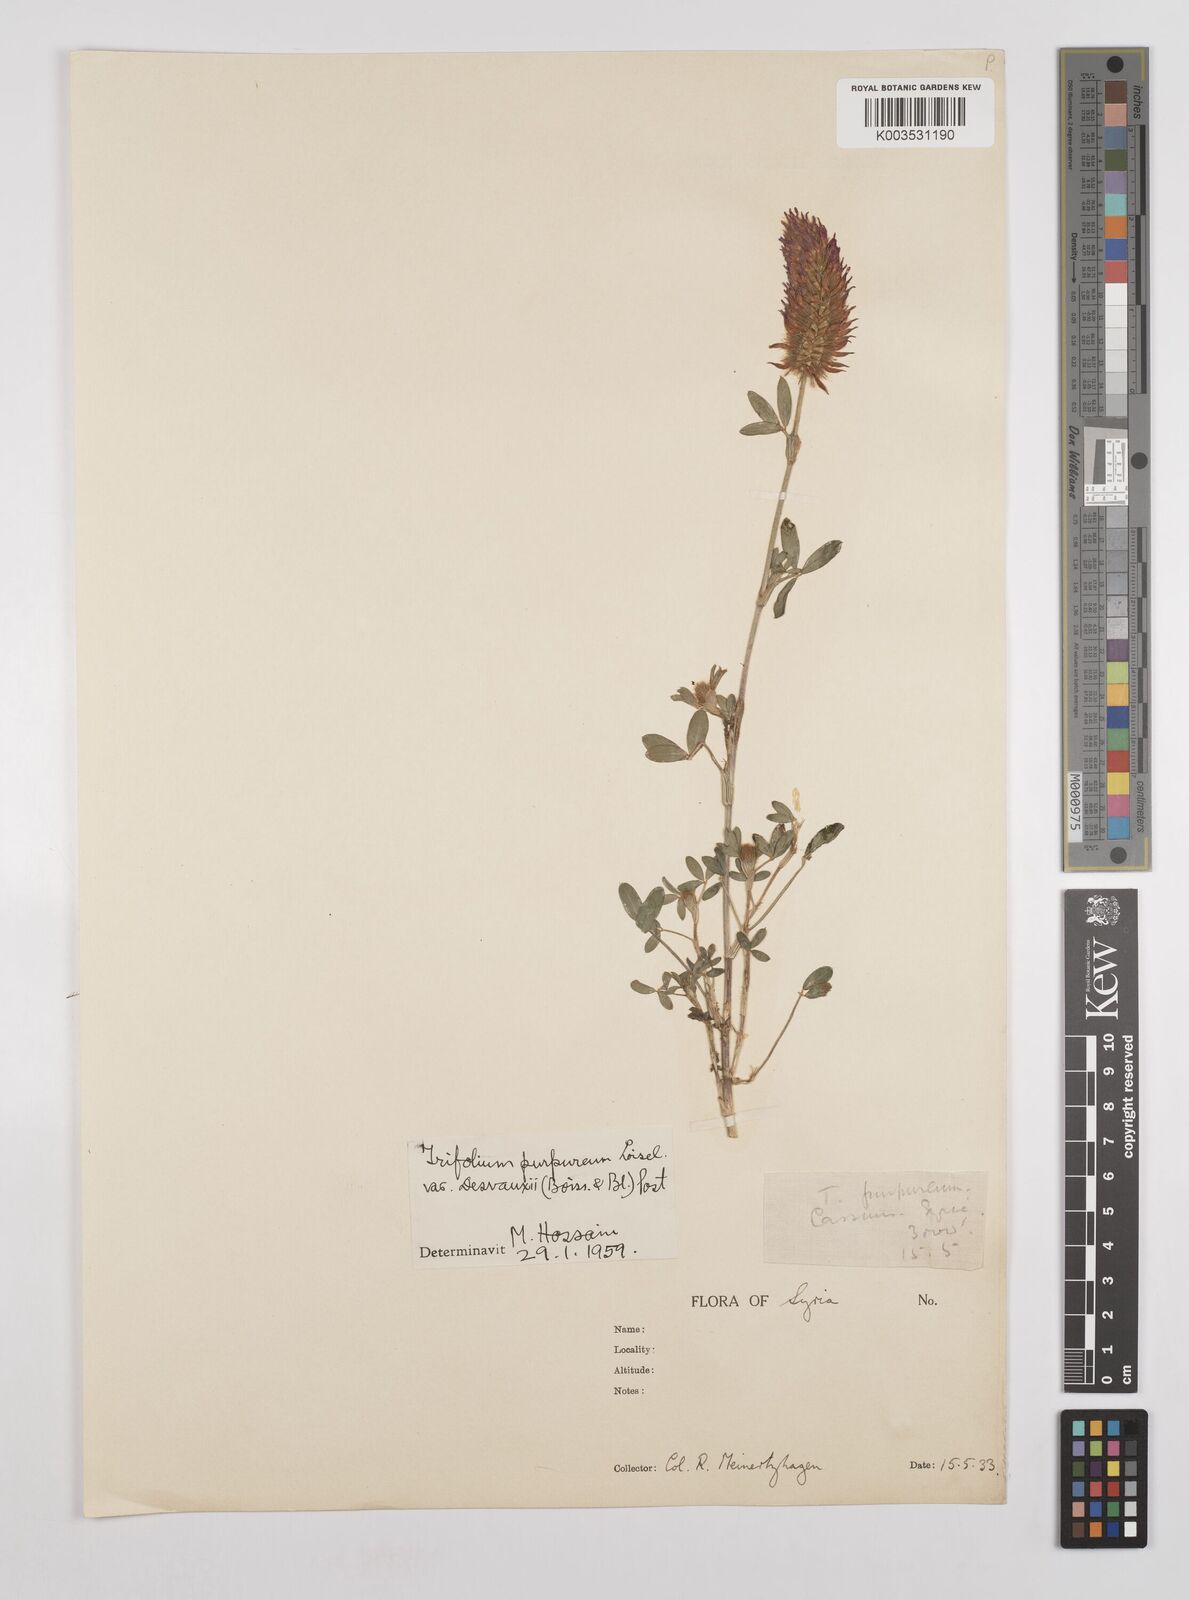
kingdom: Plantae
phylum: Tracheophyta
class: Magnoliopsida
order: Fabales
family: Fabaceae
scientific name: Fabaceae
